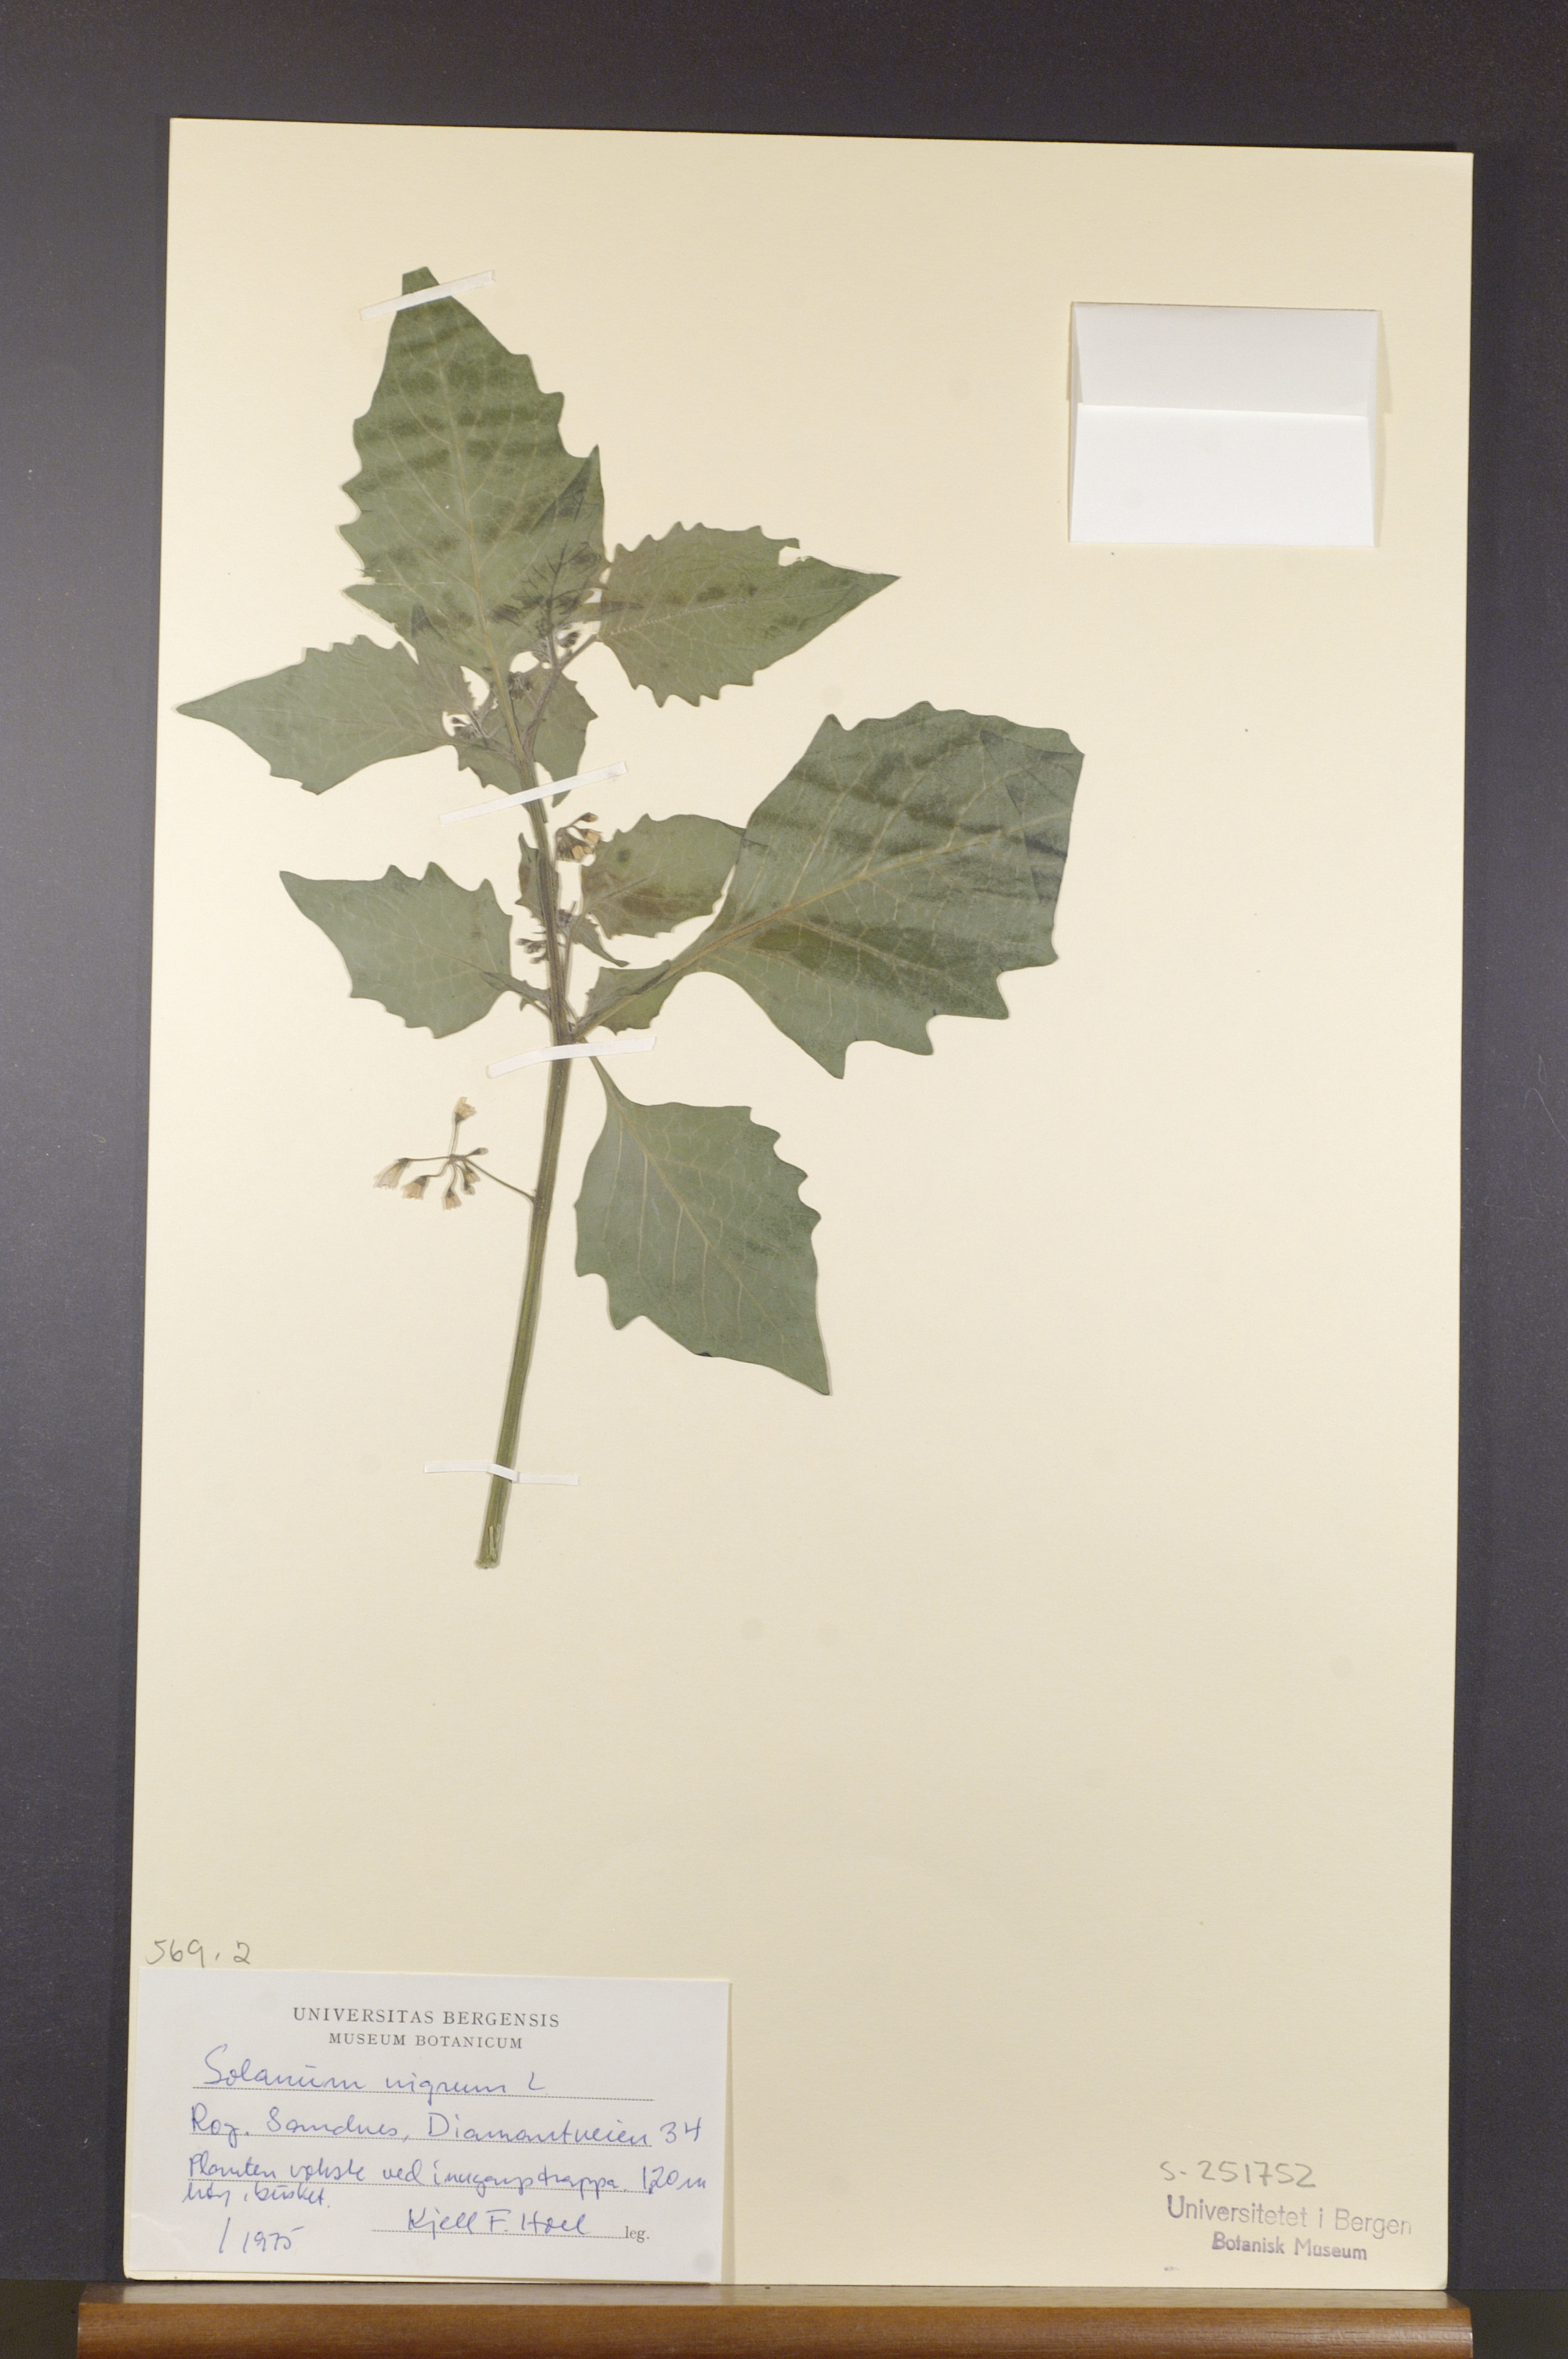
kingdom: Plantae
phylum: Tracheophyta
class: Magnoliopsida
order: Solanales
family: Solanaceae
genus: Solanum
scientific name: Solanum nigrum
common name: Black nightshade
